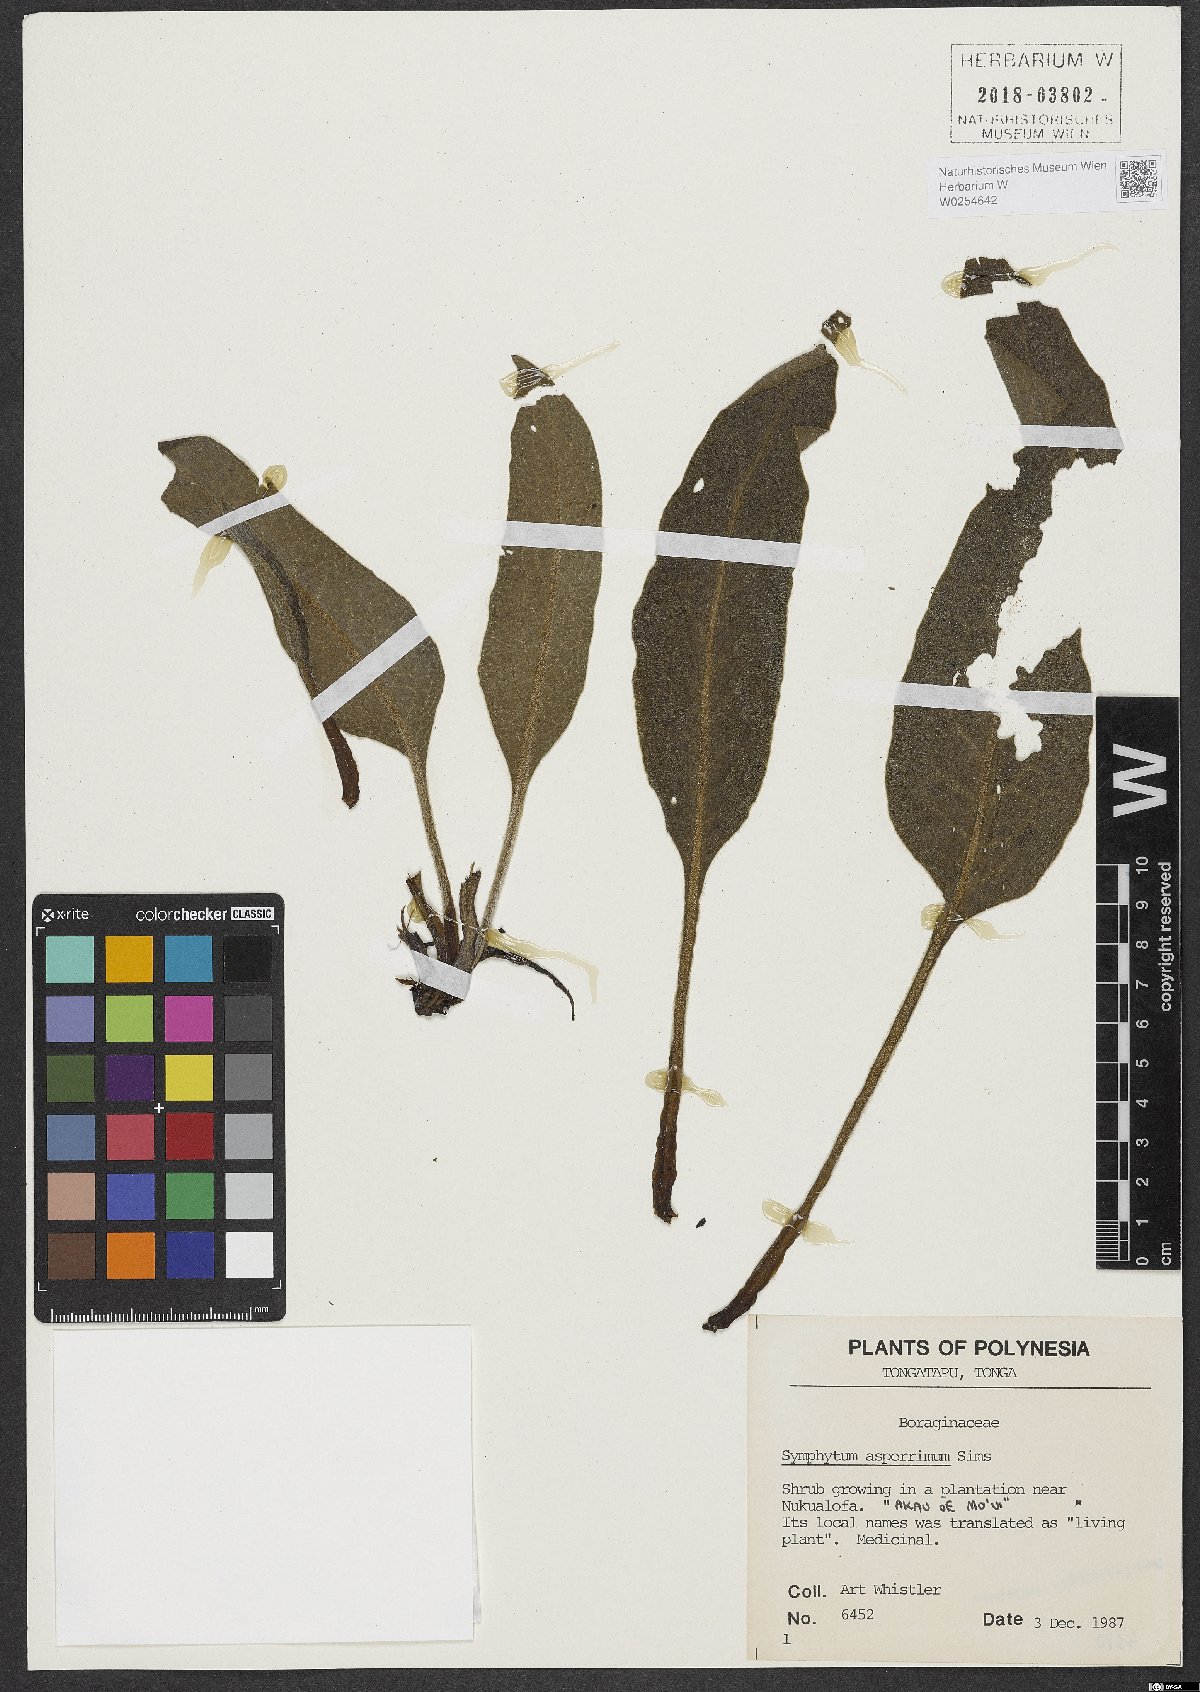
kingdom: Plantae
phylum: Tracheophyta
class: Magnoliopsida
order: Boraginales
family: Boraginaceae
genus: Symphytum
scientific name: Symphytum asperum
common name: Prickly comfrey
